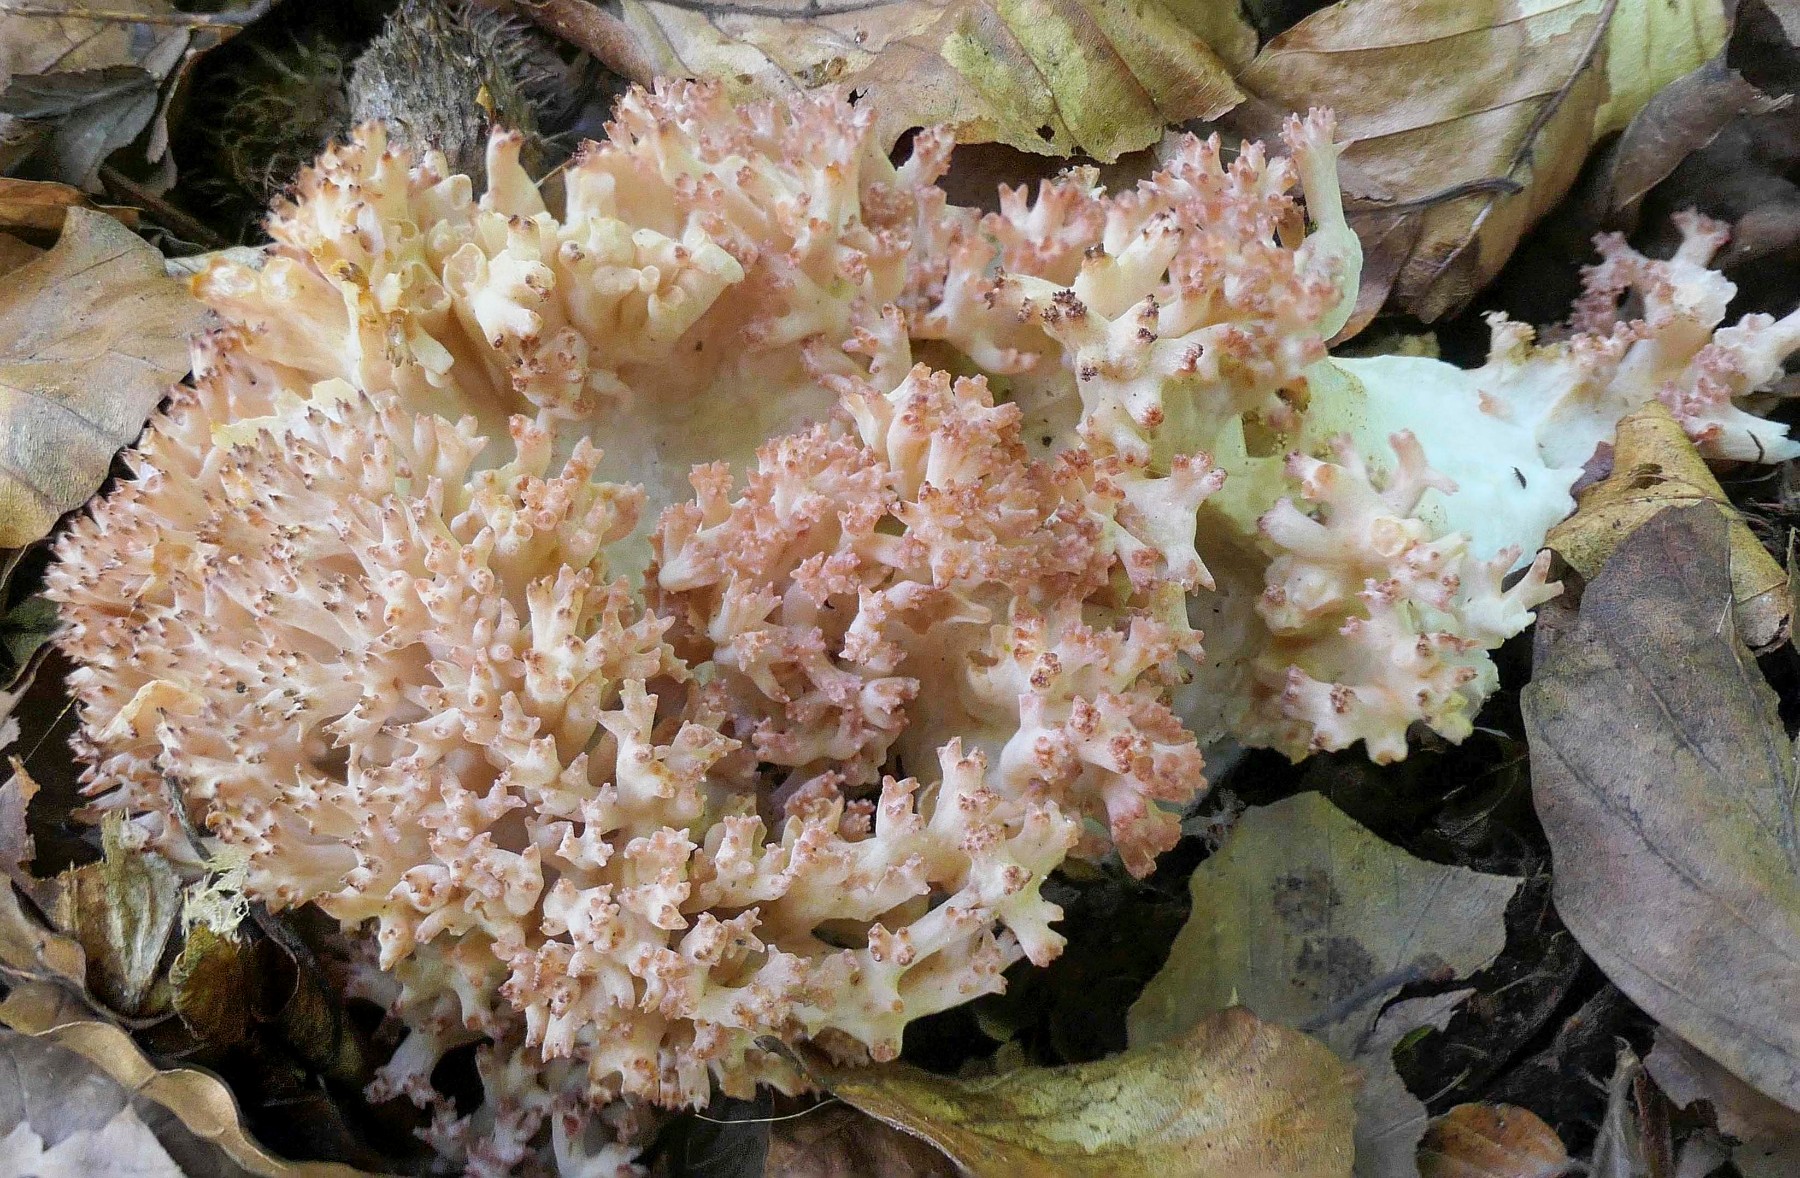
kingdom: Fungi
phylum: Basidiomycota
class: Agaricomycetes
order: Gomphales
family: Gomphaceae
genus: Ramaria
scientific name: Ramaria botrytis
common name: drue-koralsvamp
